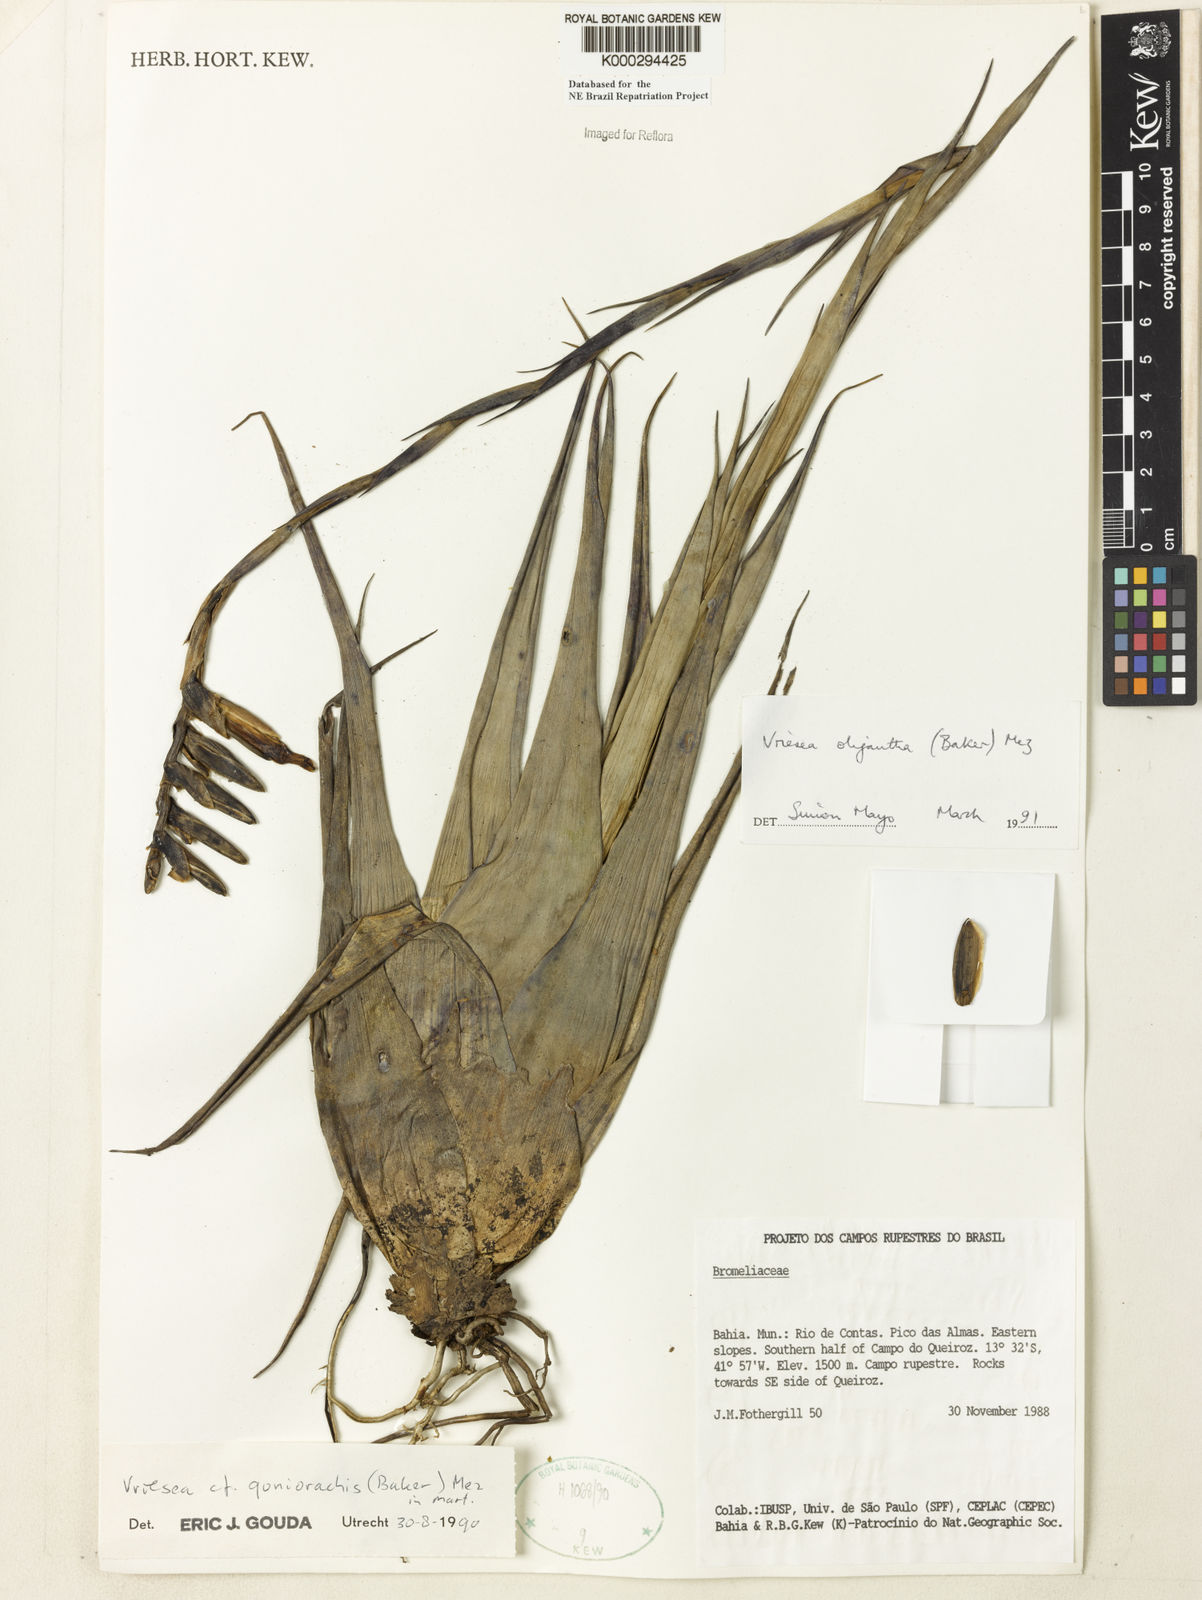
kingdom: Plantae
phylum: Tracheophyta
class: Liliopsida
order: Poales
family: Bromeliaceae
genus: Vriesea
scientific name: Vriesea oligantha
